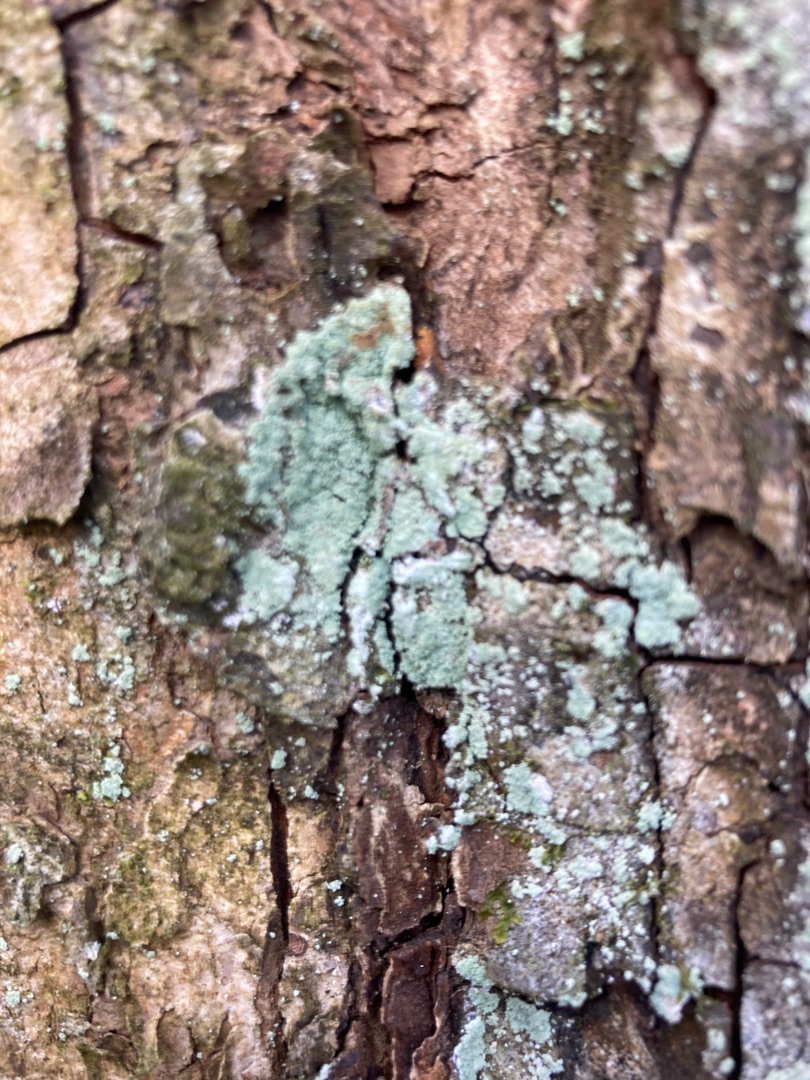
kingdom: Fungi
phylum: Ascomycota
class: Lecanoromycetes
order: Lecanorales
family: Stereocaulaceae
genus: Lepraria
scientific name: Lepraria incana
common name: Almindelig støvlav
